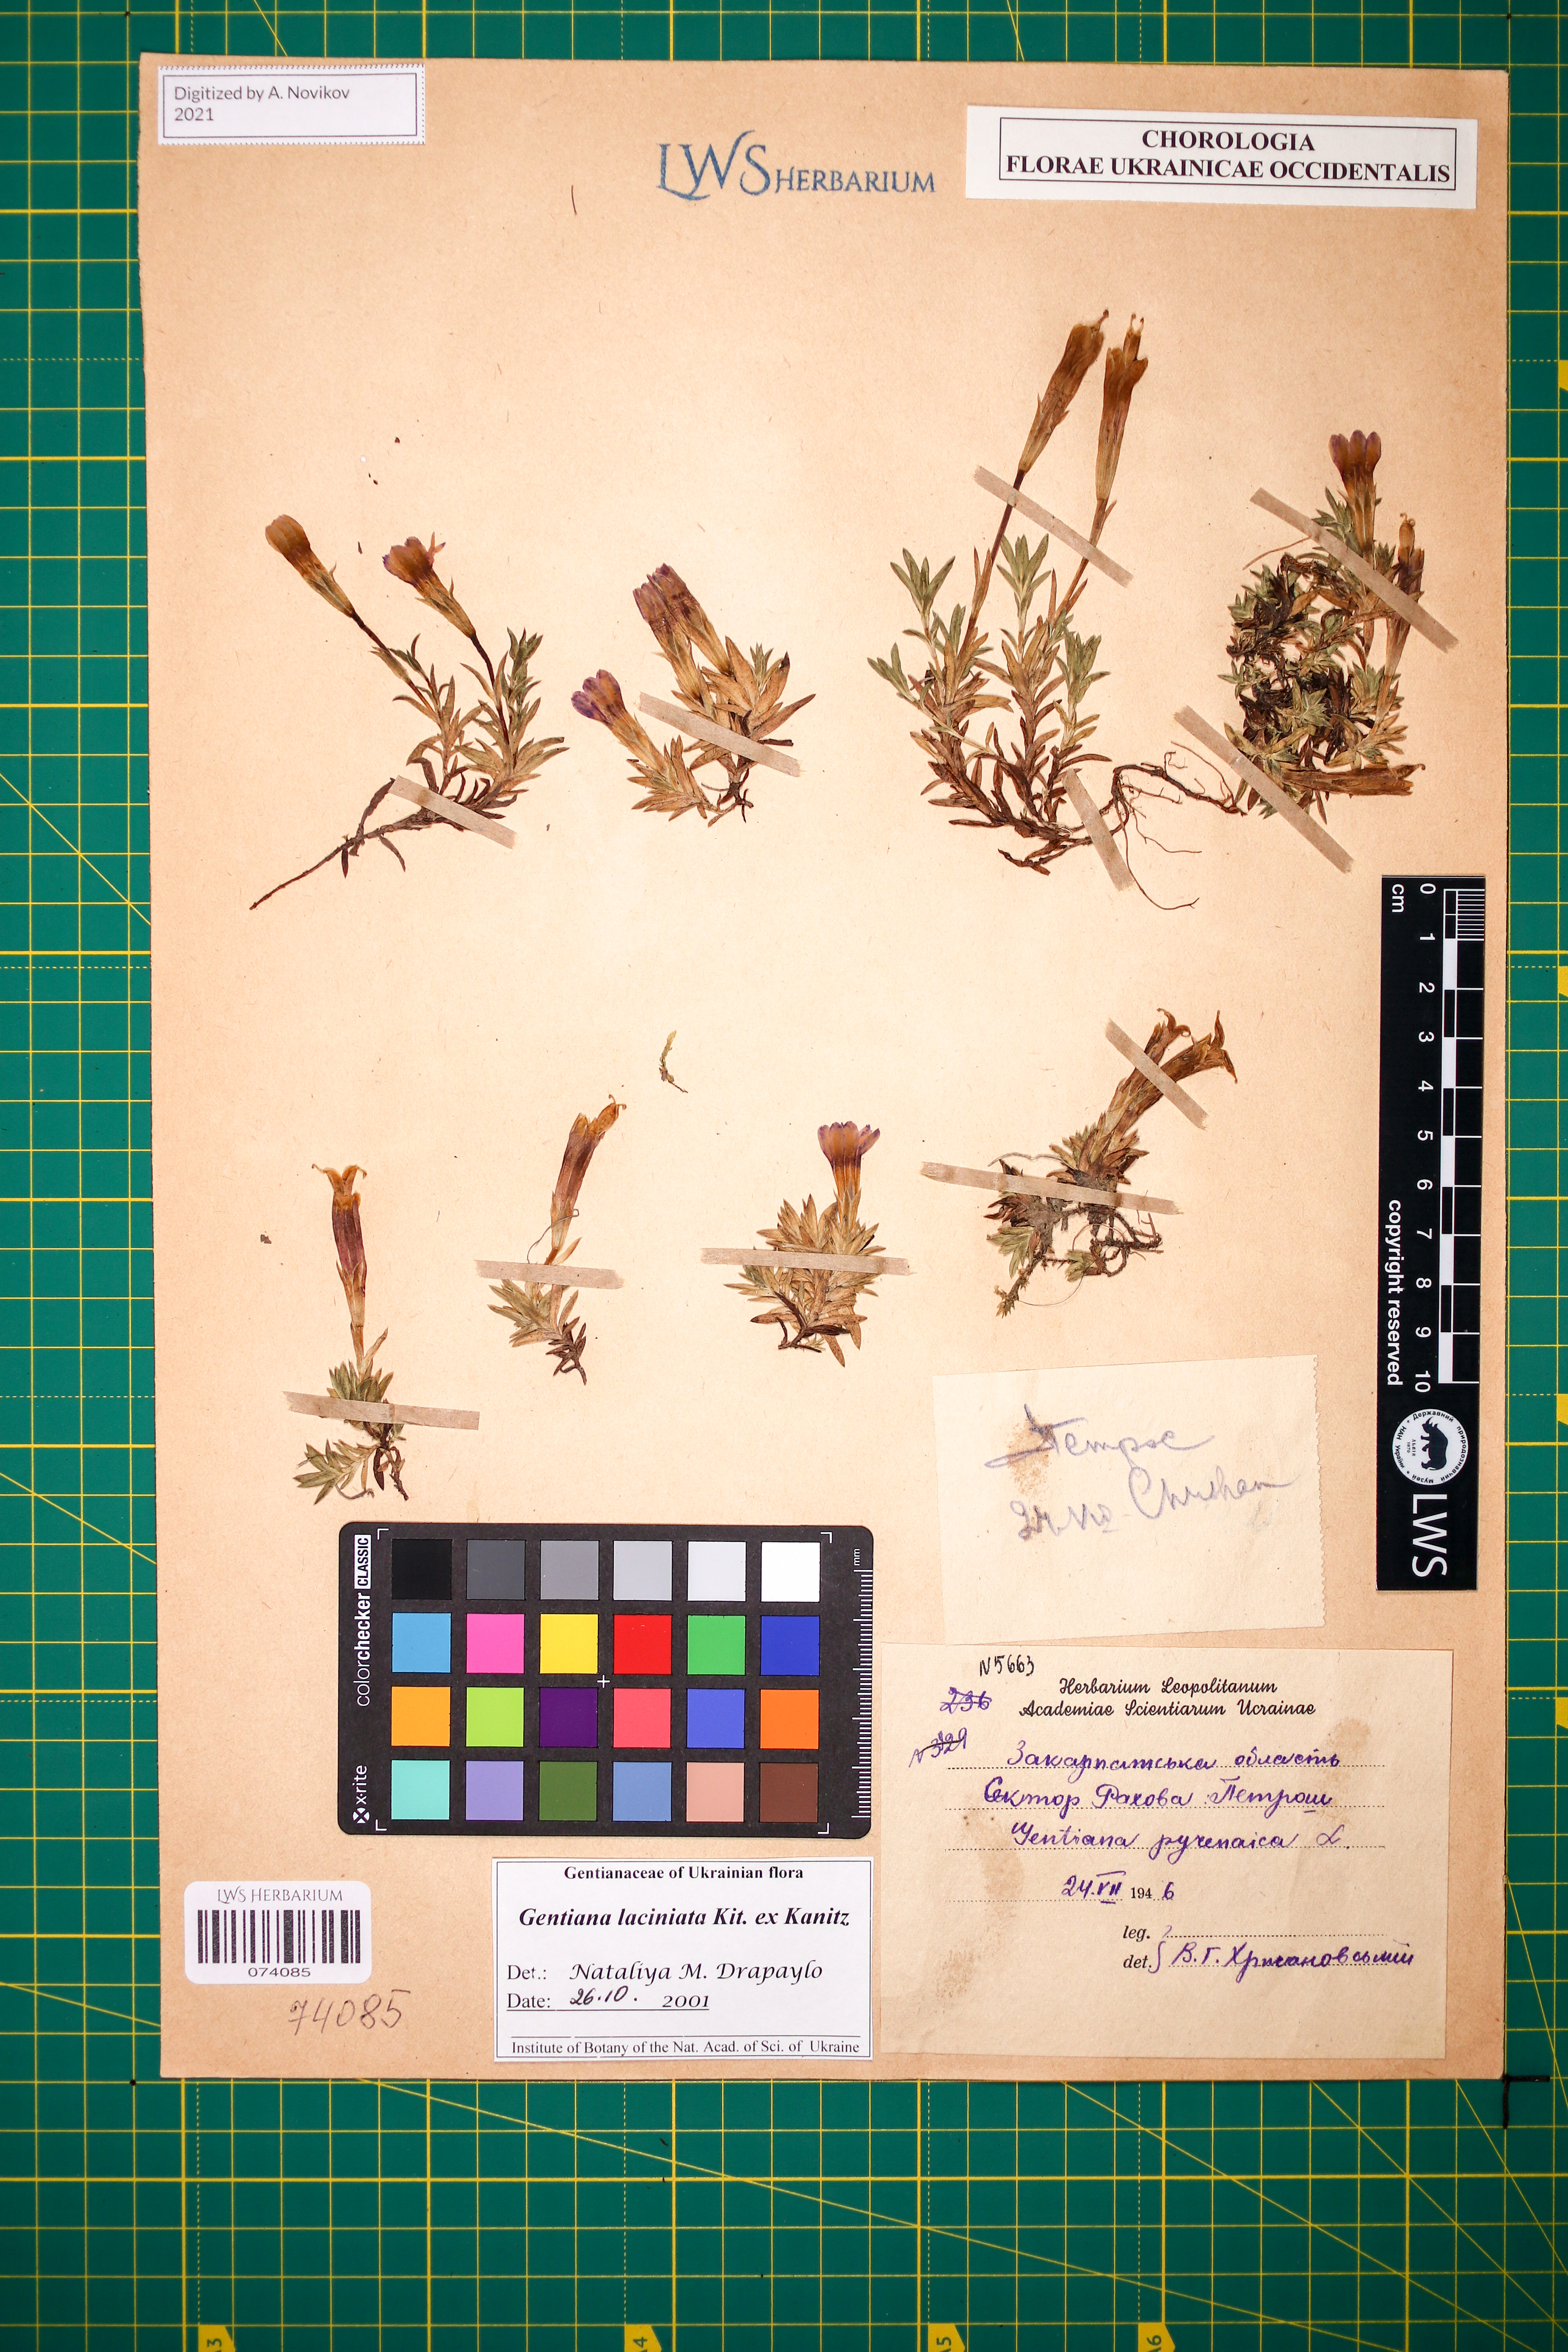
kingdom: Plantae
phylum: Tracheophyta
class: Magnoliopsida
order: Gentianales
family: Gentianaceae
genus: Gentiana
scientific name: Gentiana laciniata
